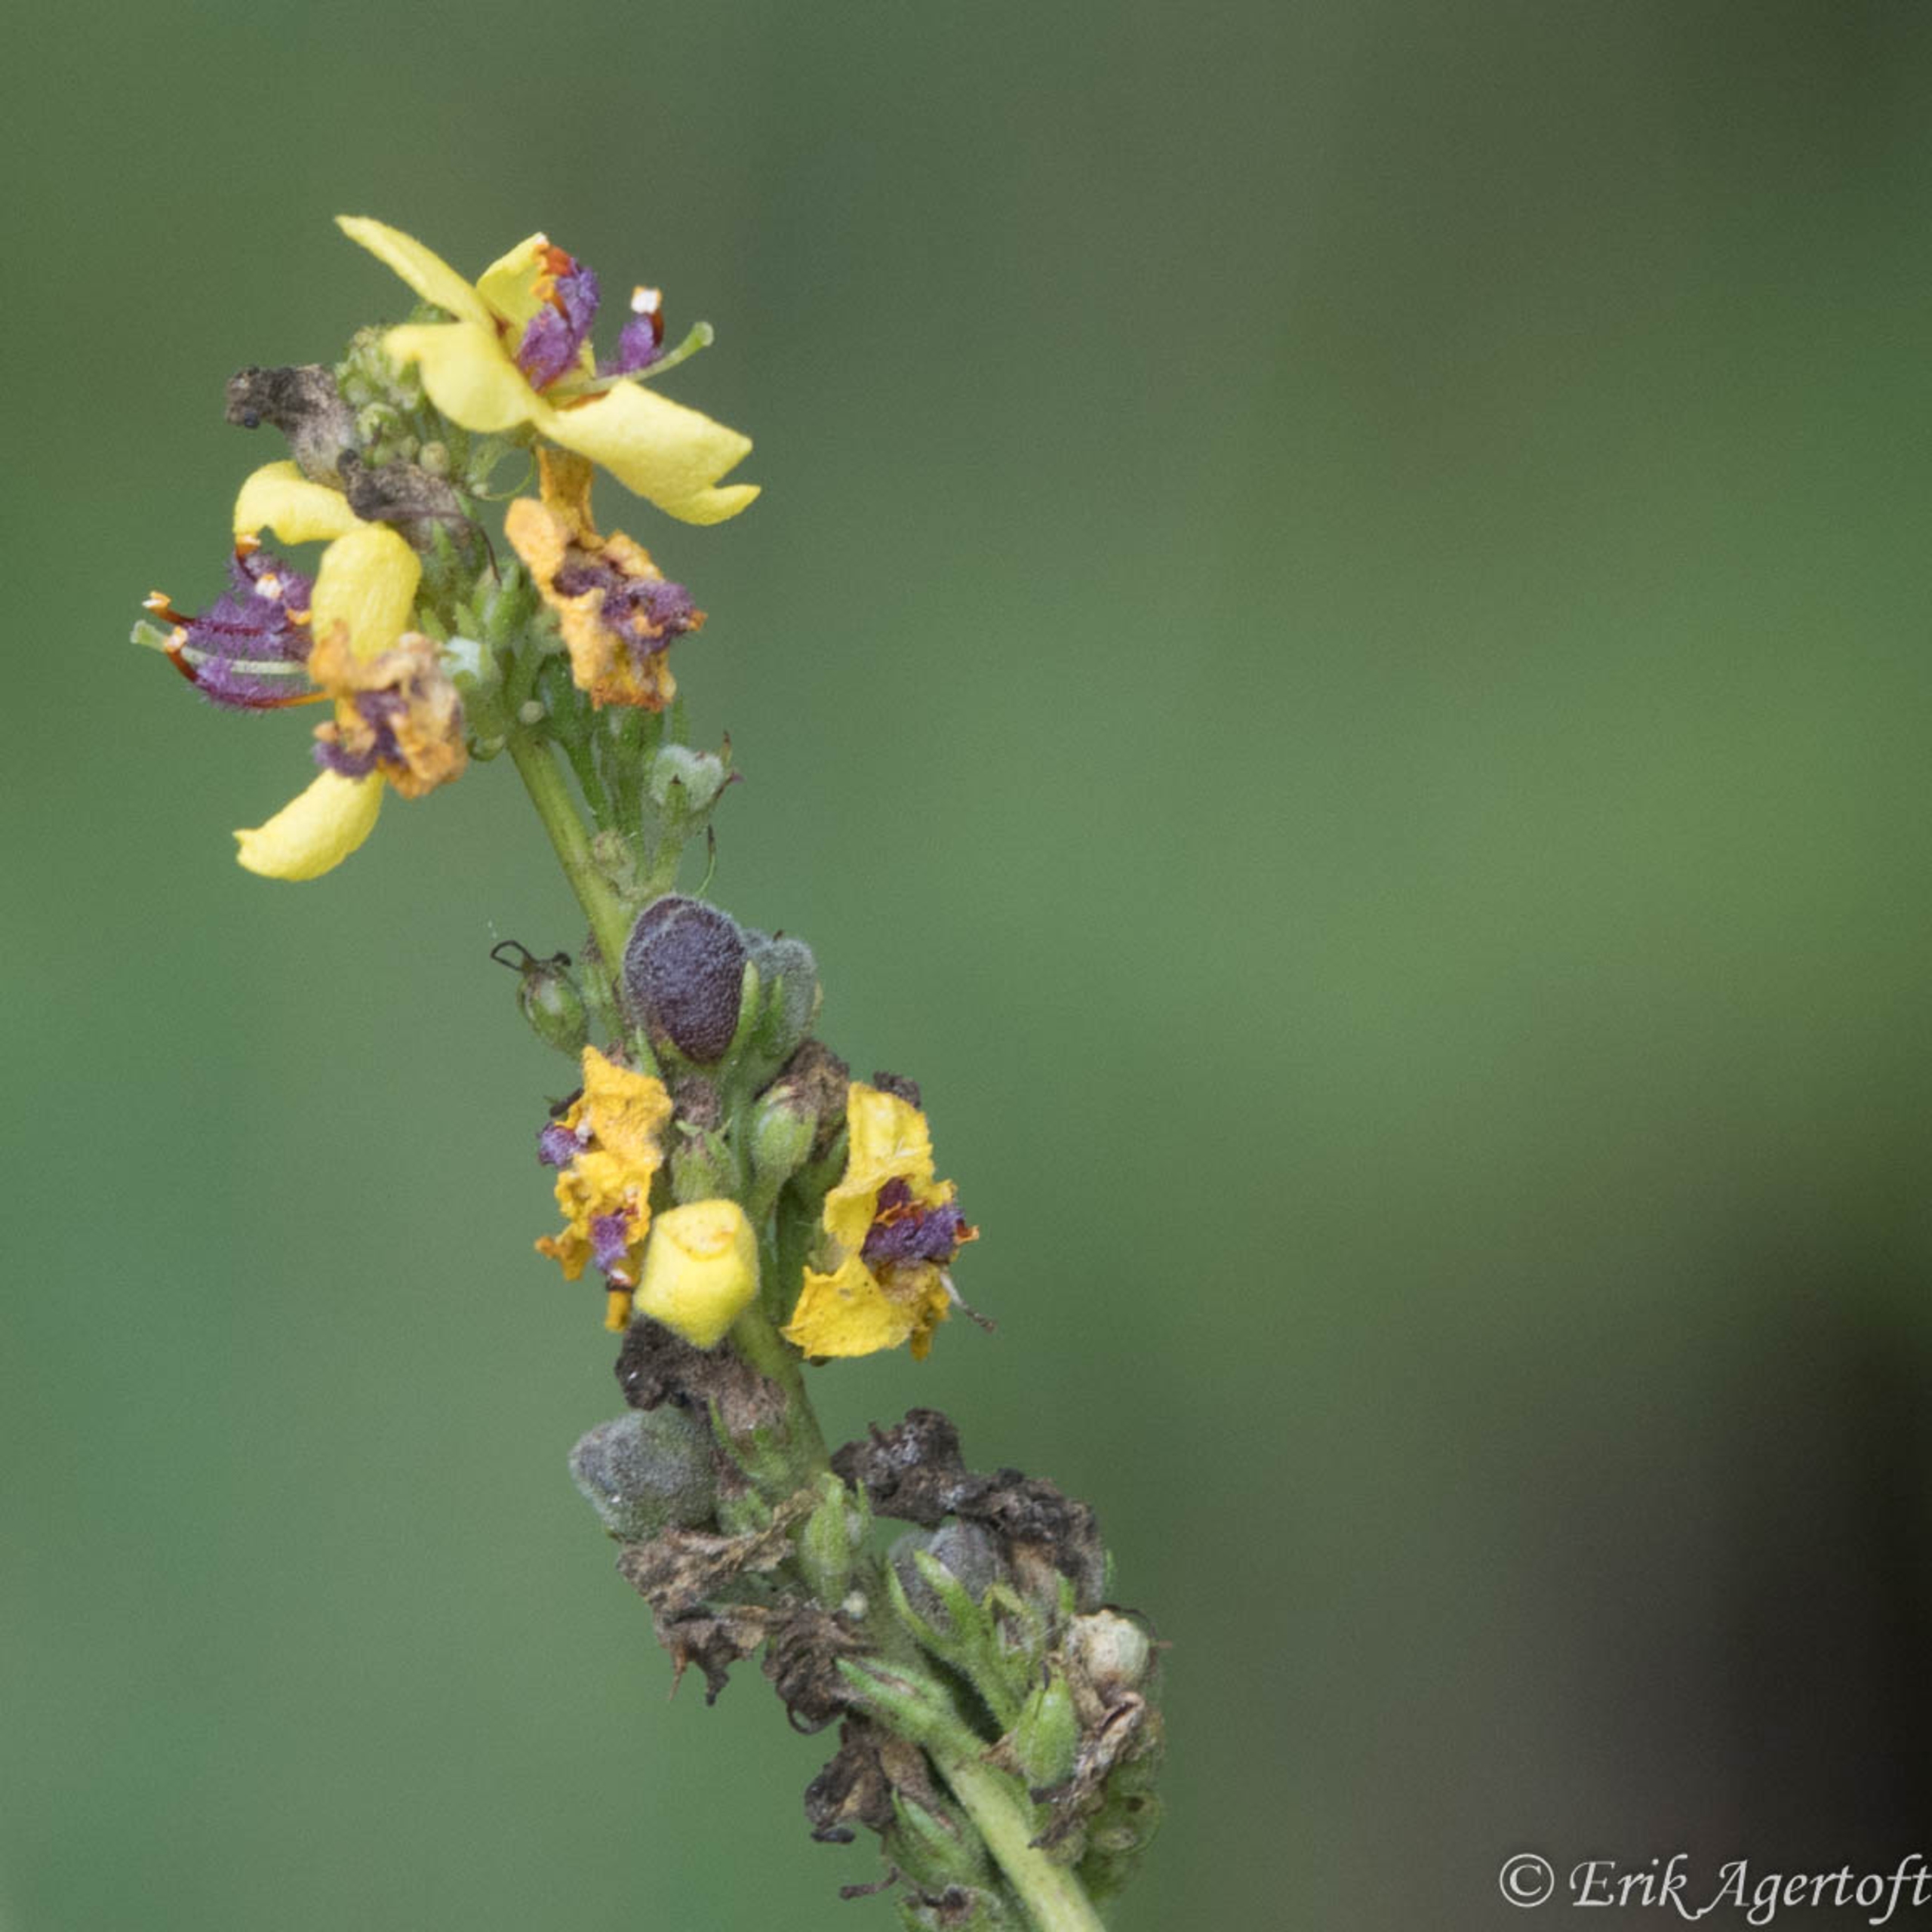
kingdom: Plantae
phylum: Tracheophyta
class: Magnoliopsida
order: Lamiales
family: Scrophulariaceae
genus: Verbascum
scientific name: Verbascum nigrum
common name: Mørk kongelys
